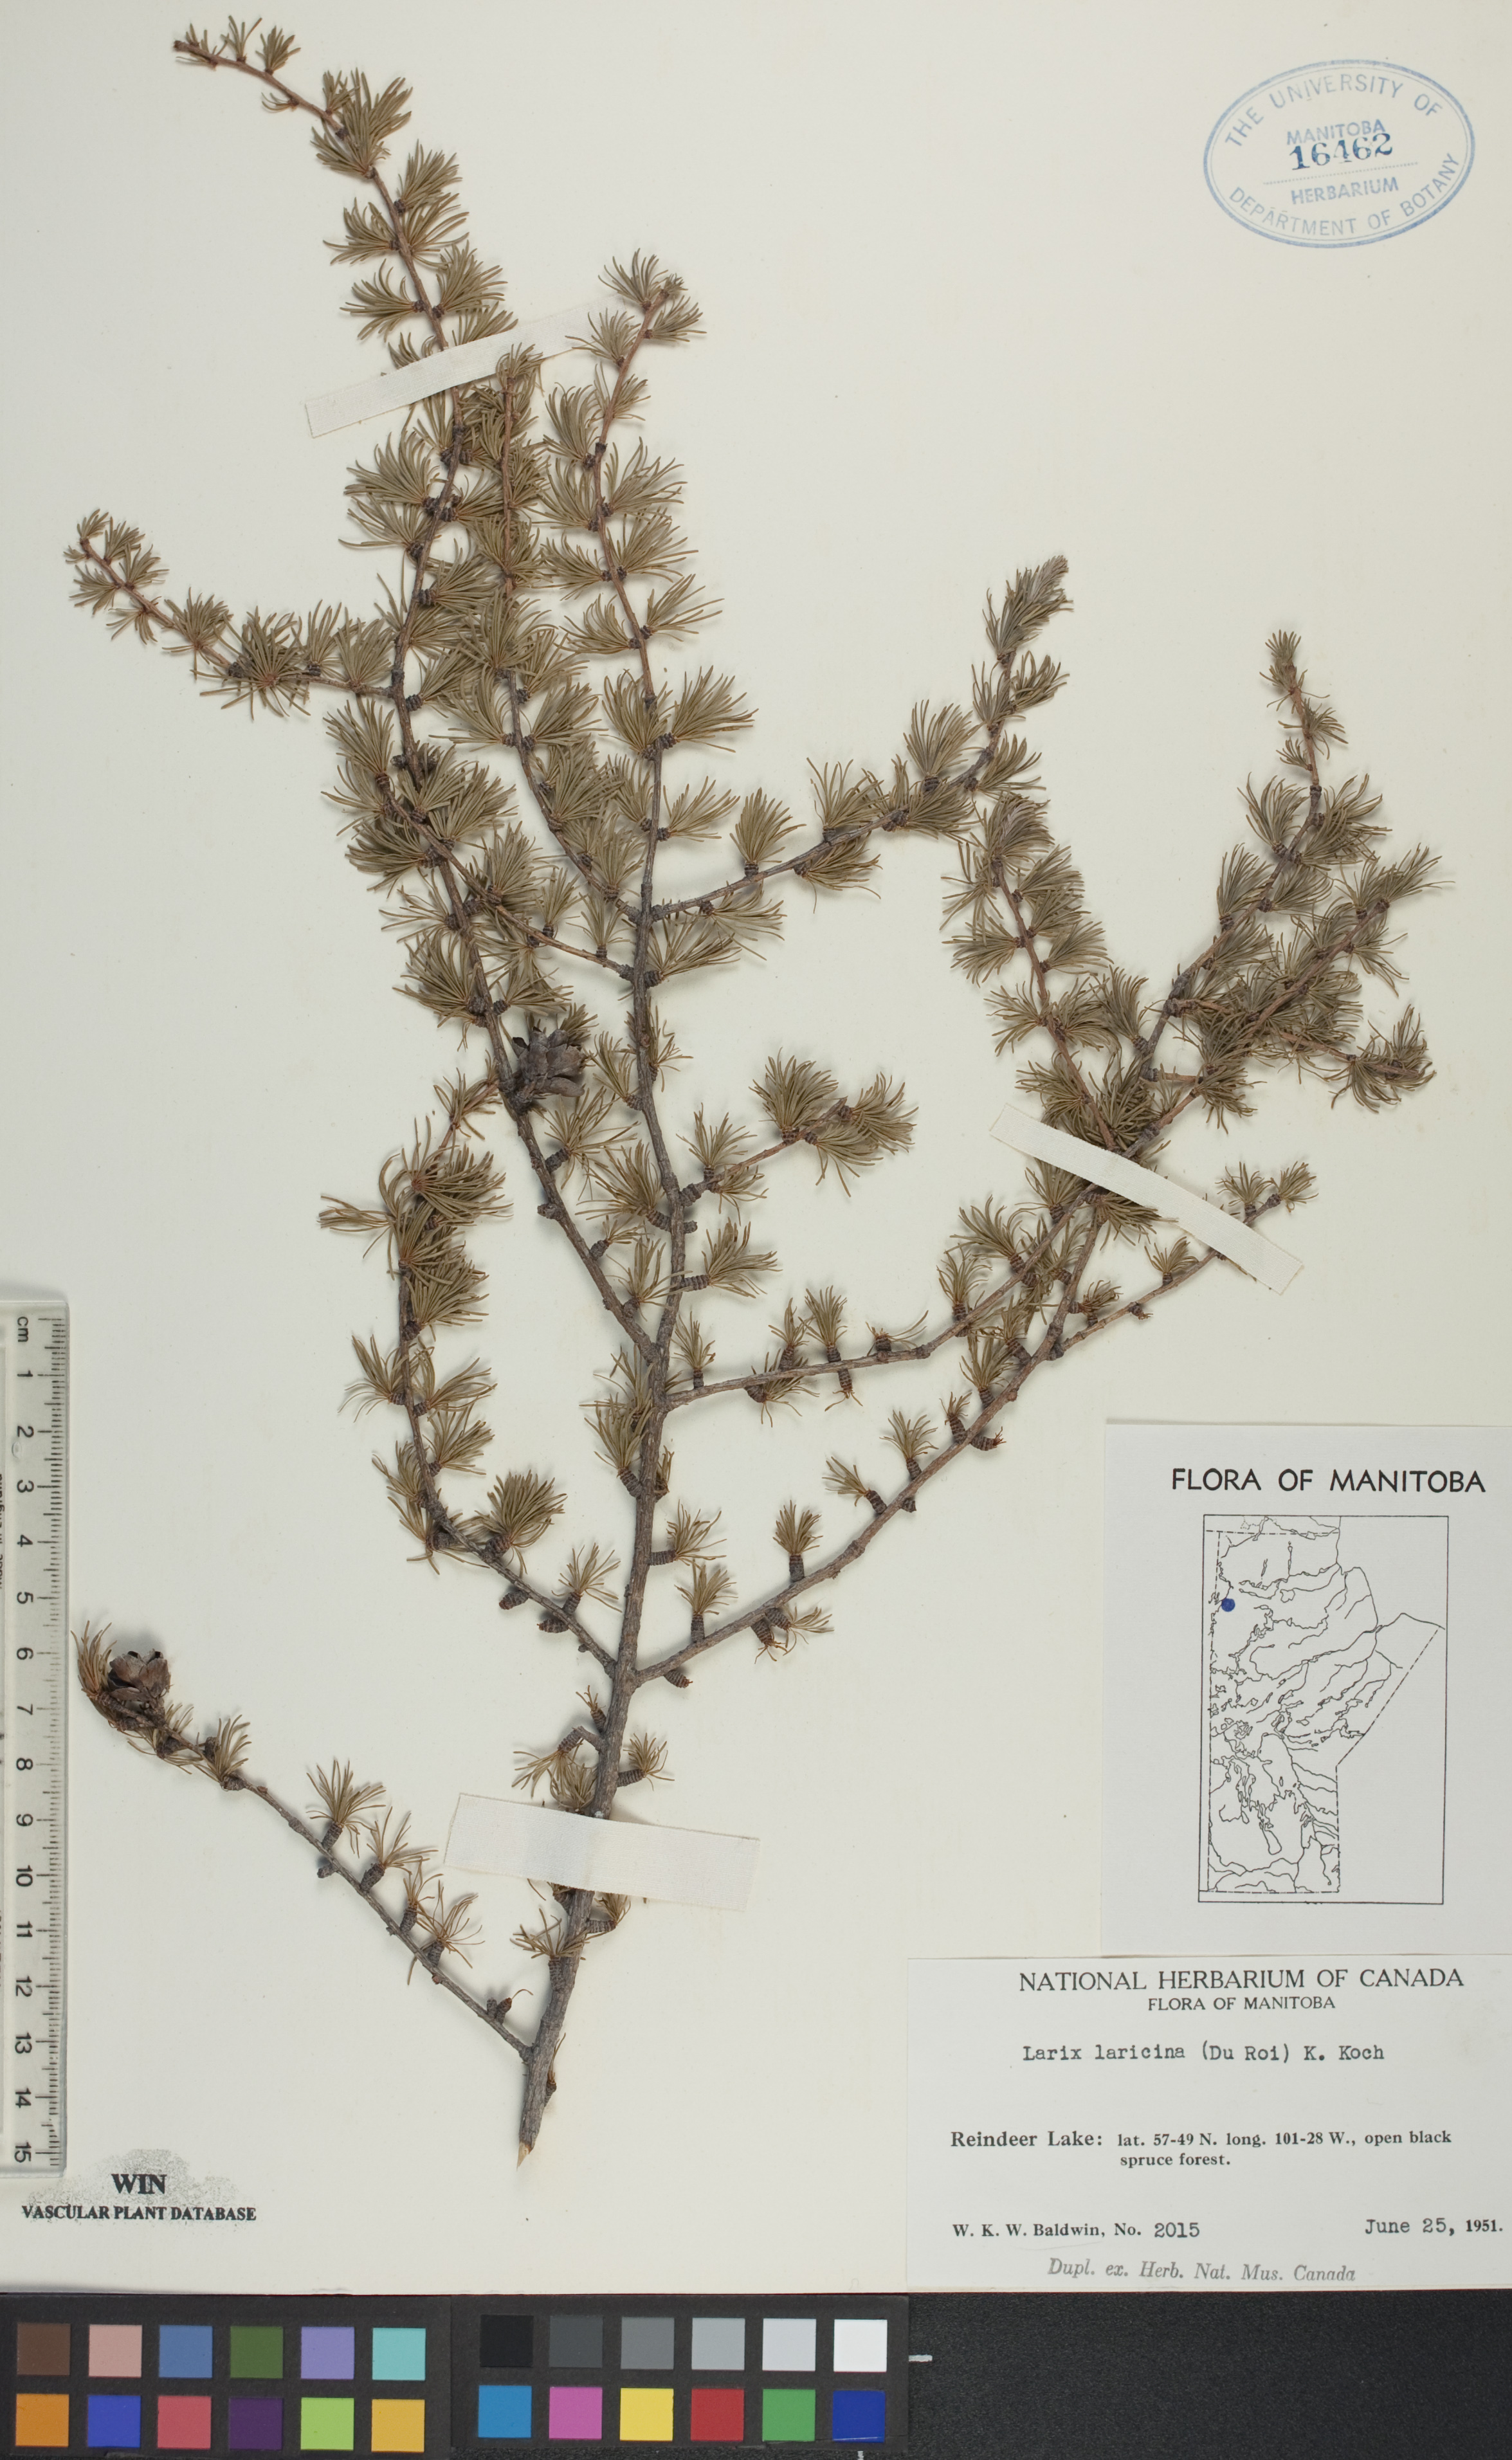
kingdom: Plantae
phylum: Tracheophyta
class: Pinopsida
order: Pinales
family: Pinaceae
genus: Larix
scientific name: Larix laricina
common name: American larch
